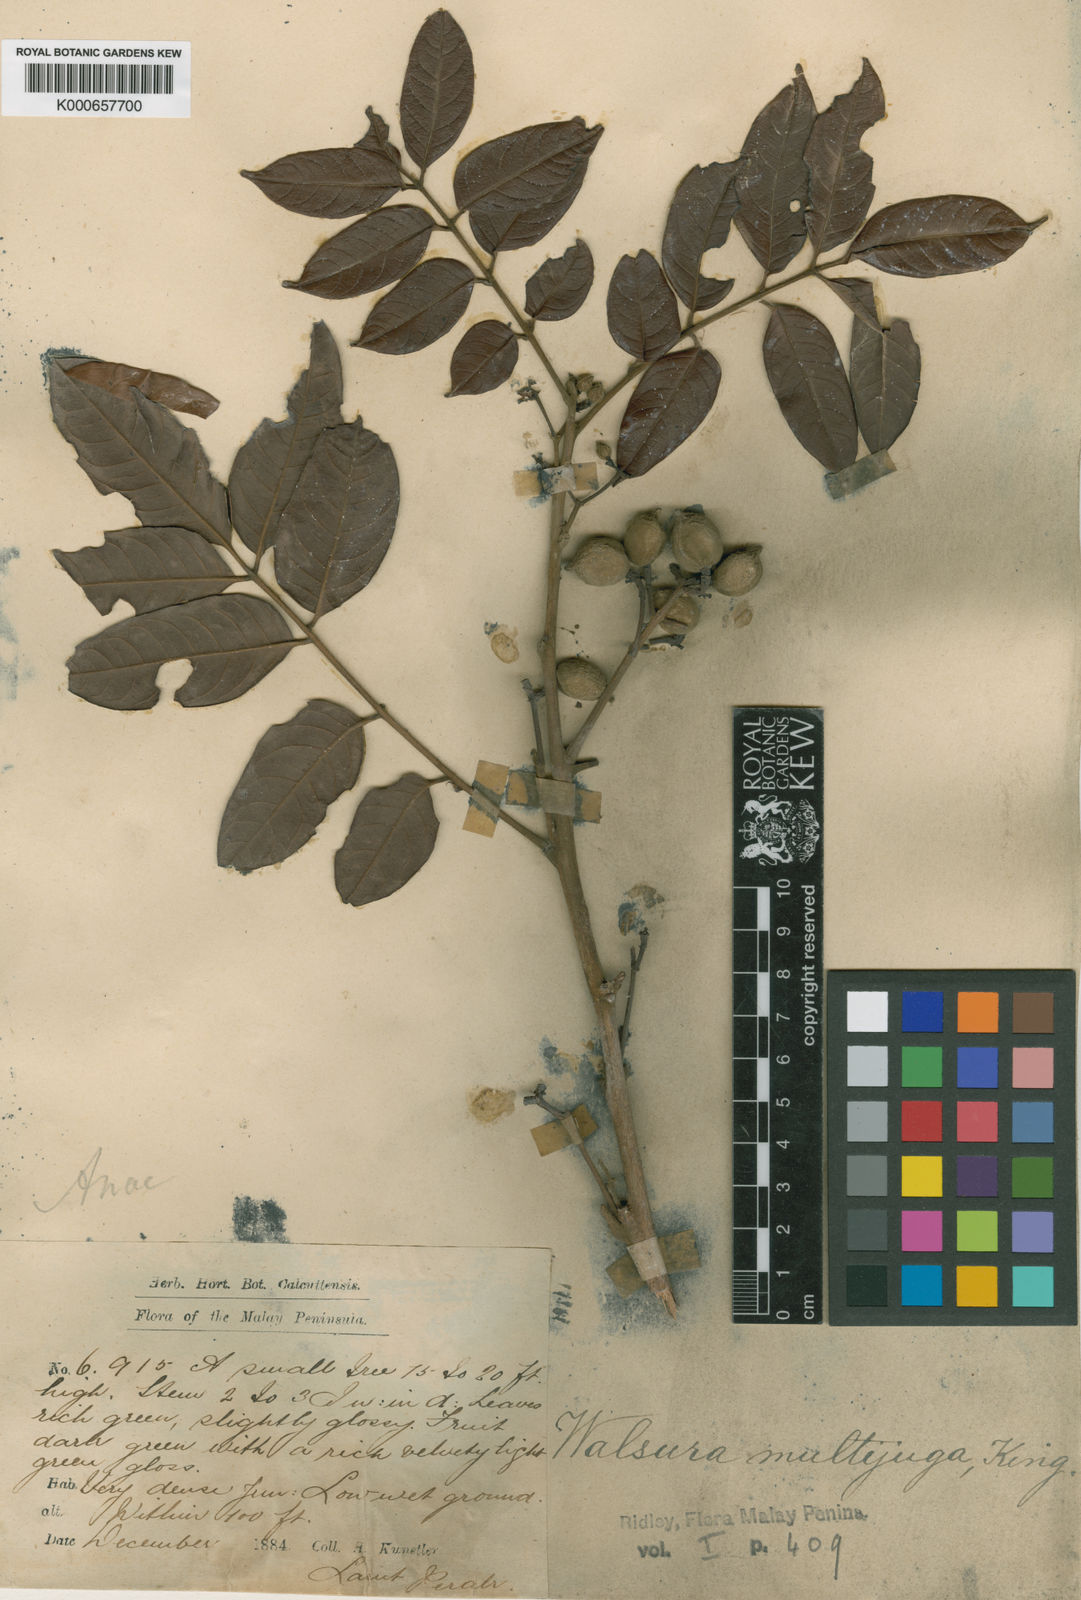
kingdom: Plantae
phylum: Tracheophyta
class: Magnoliopsida
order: Sapindales
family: Meliaceae
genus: Walsura
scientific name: Walsura
